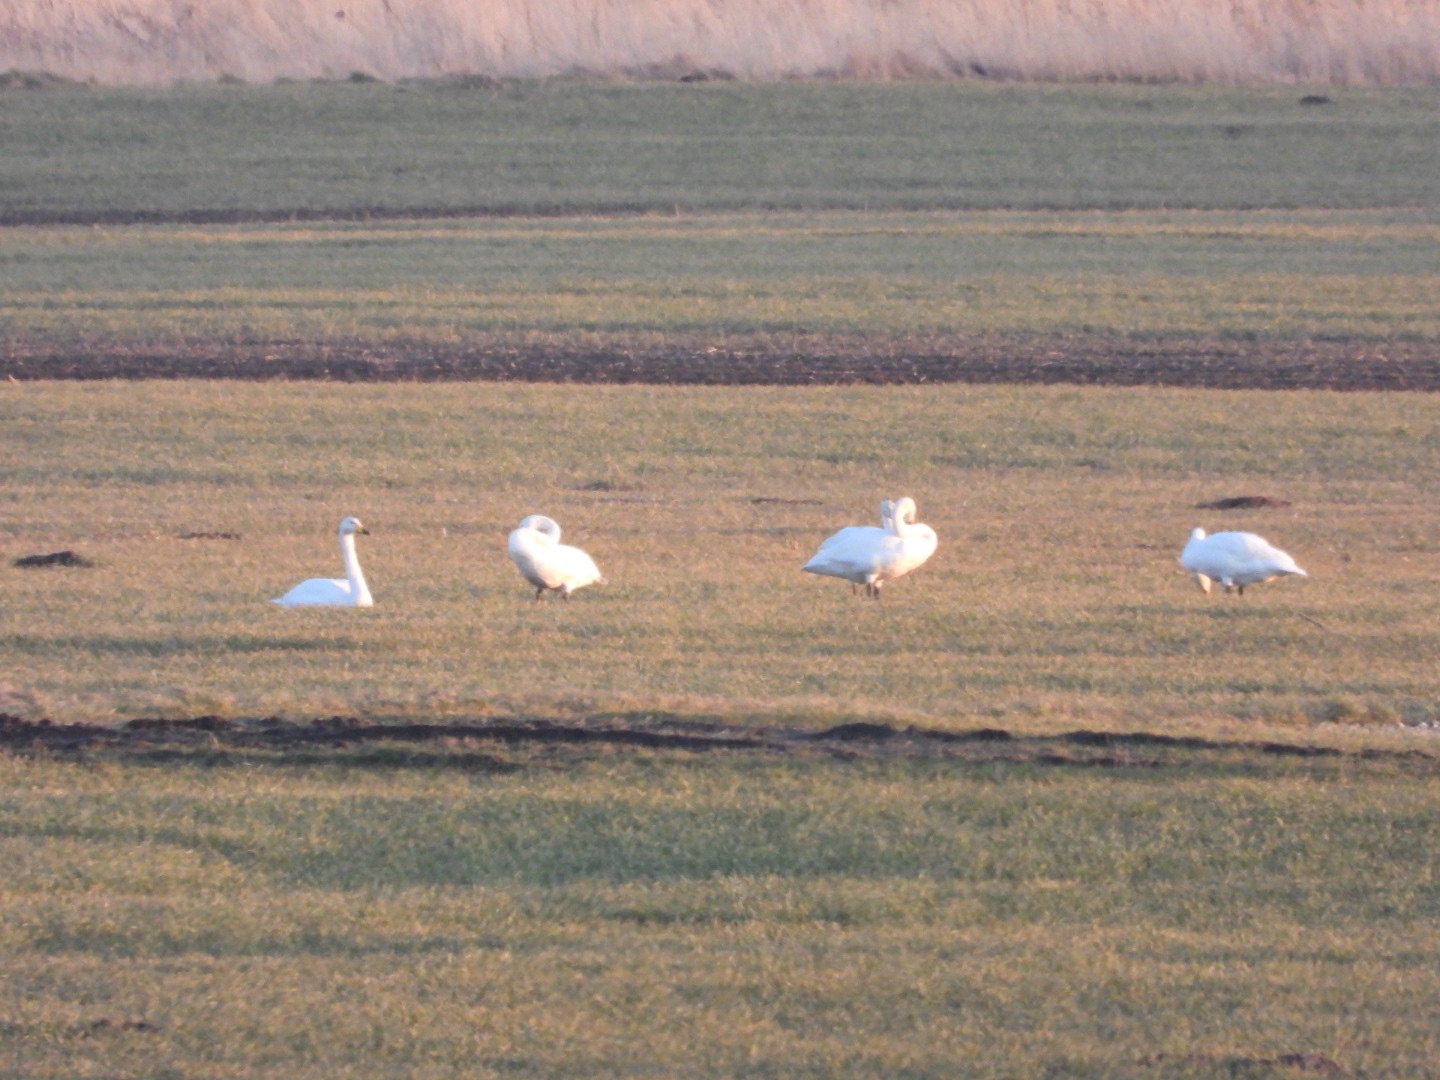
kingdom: Animalia
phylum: Chordata
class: Aves
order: Anseriformes
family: Anatidae
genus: Cygnus
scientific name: Cygnus cygnus
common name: Sangsvane
